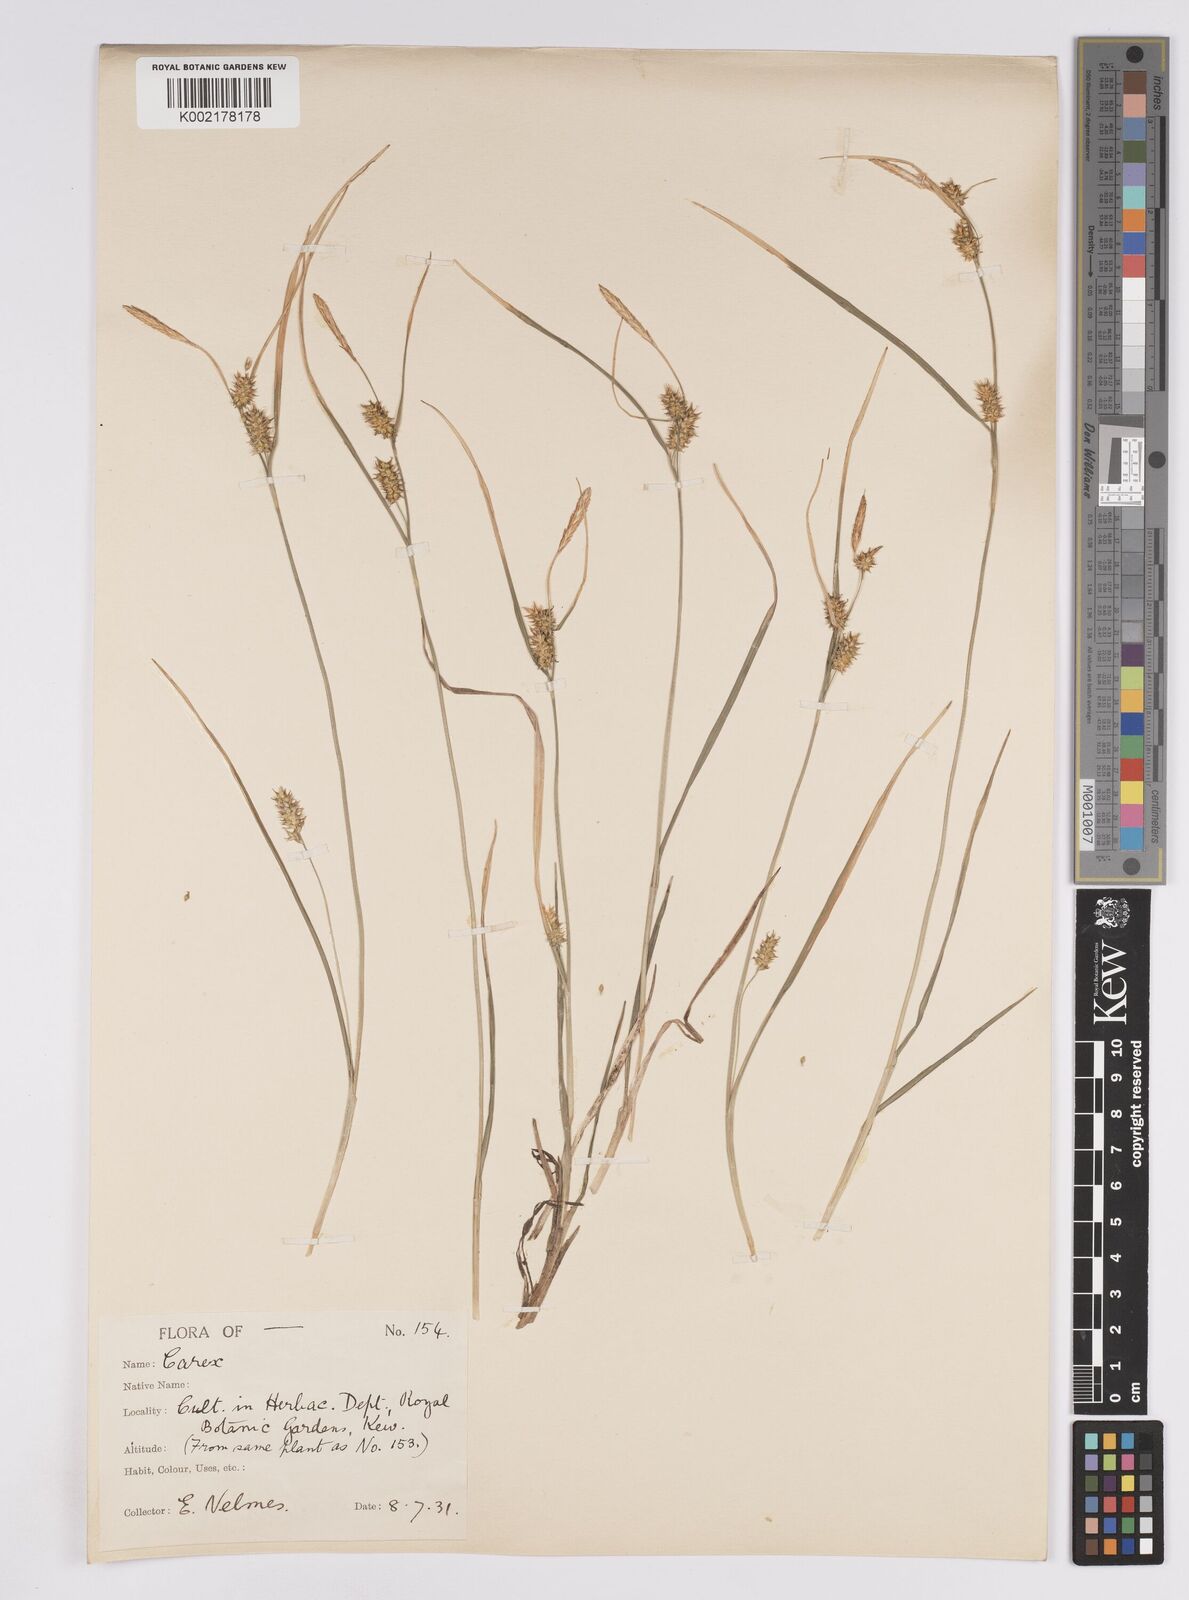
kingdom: Plantae
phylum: Tracheophyta
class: Liliopsida
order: Poales
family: Cyperaceae
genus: Carex
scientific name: Carex demissa
